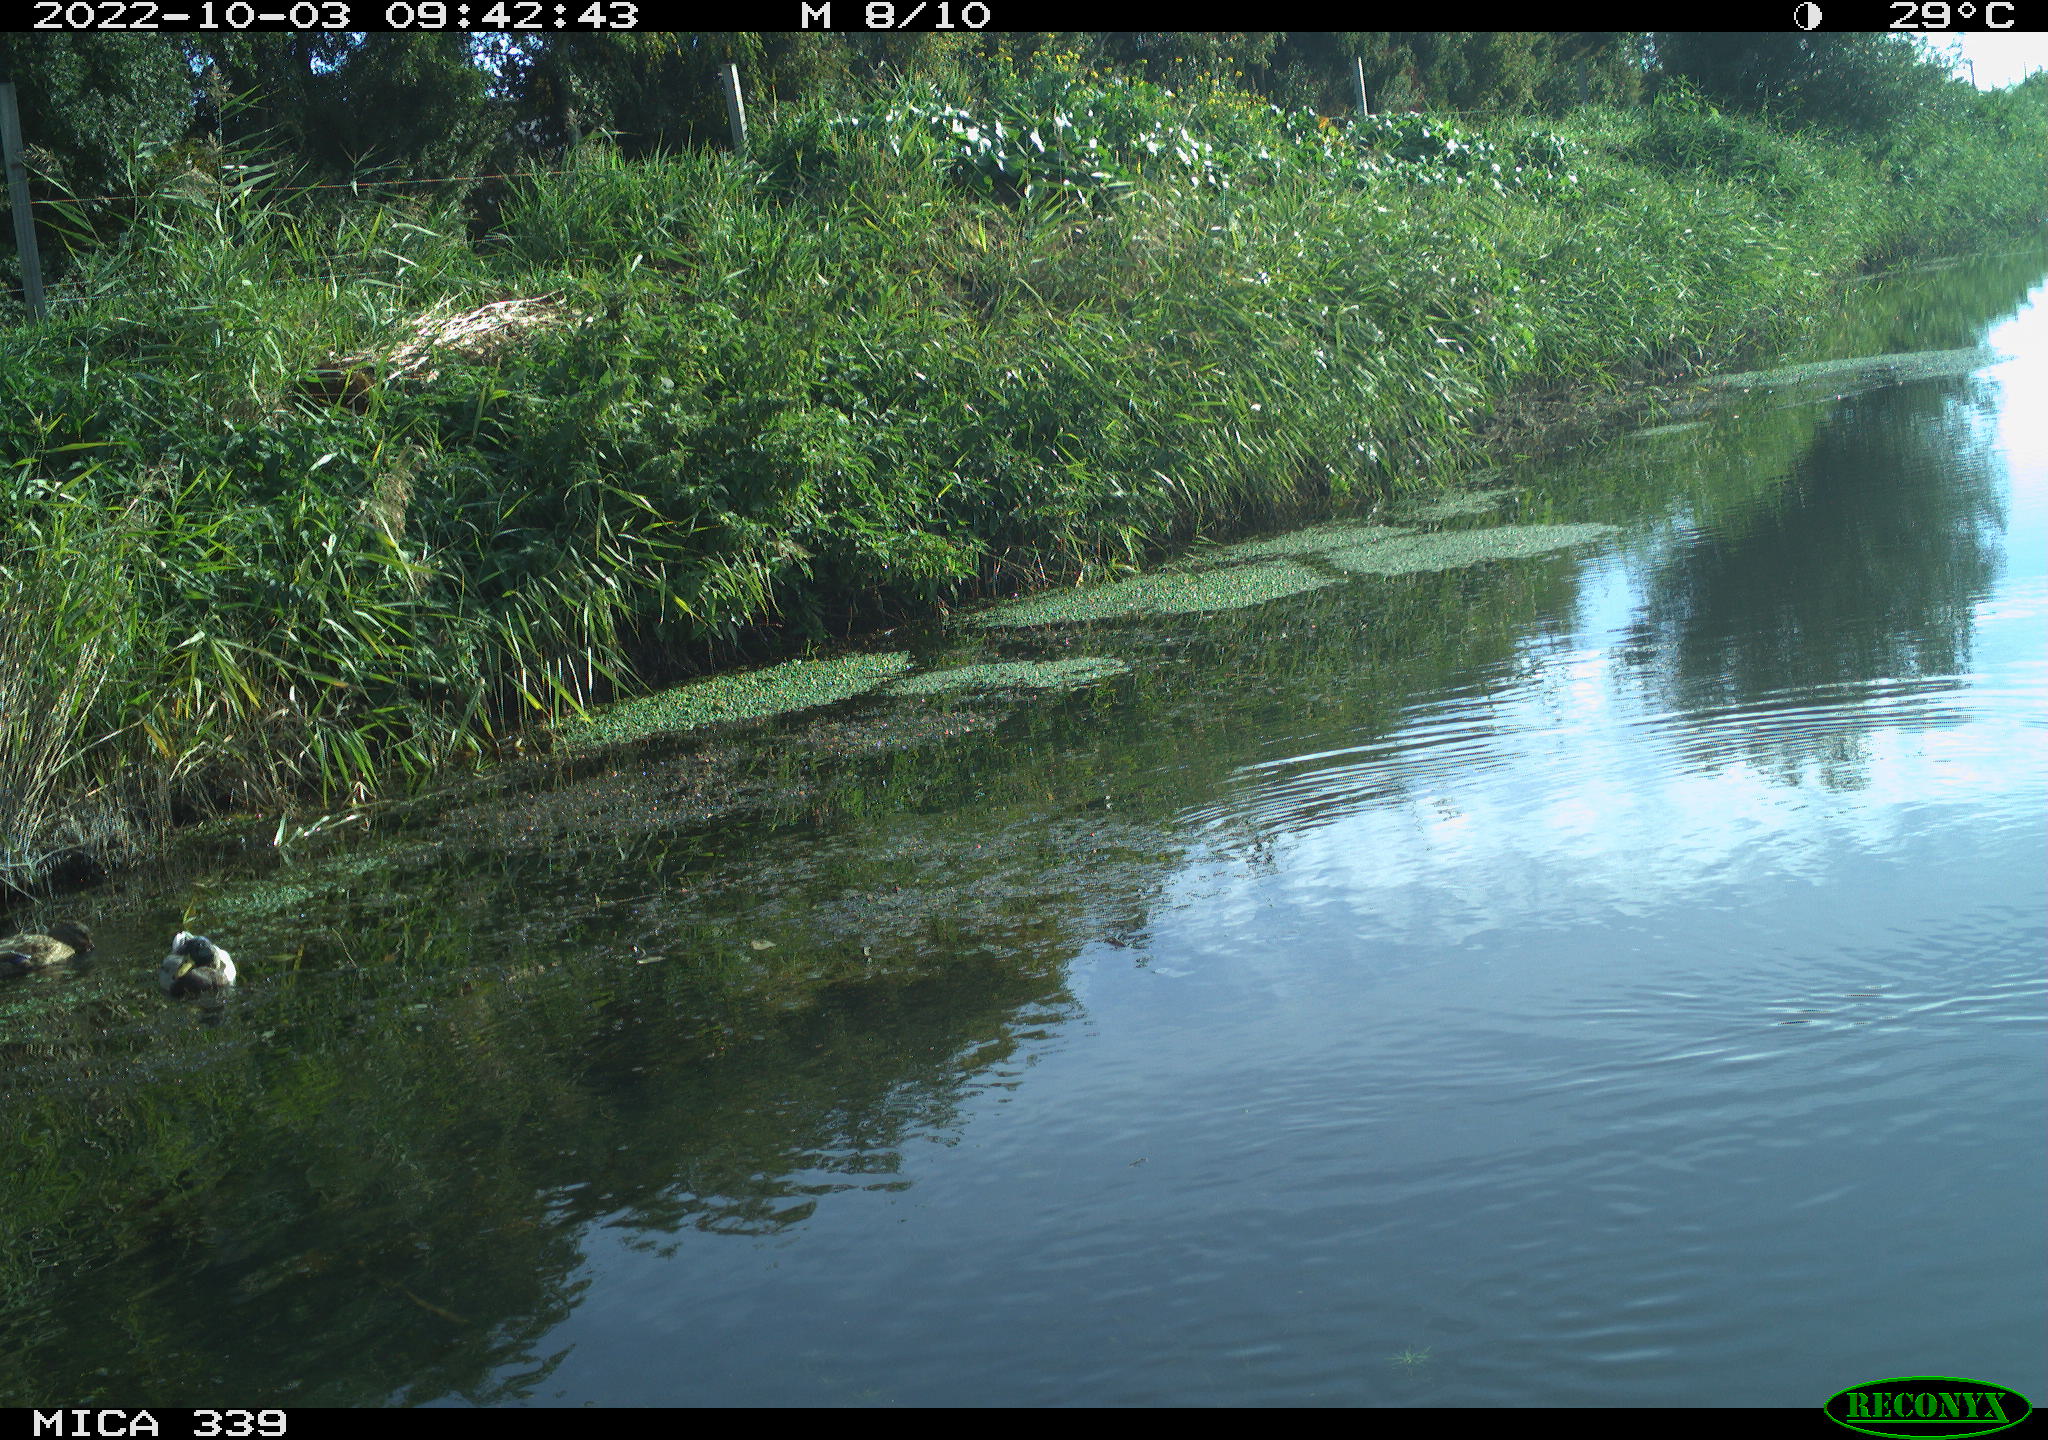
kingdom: Animalia
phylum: Chordata
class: Aves
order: Anseriformes
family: Anatidae
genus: Anas
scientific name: Anas platyrhynchos
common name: Mallard
